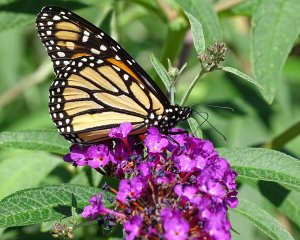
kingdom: Animalia
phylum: Arthropoda
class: Insecta
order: Lepidoptera
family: Nymphalidae
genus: Danaus
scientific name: Danaus plexippus
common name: Monarch
